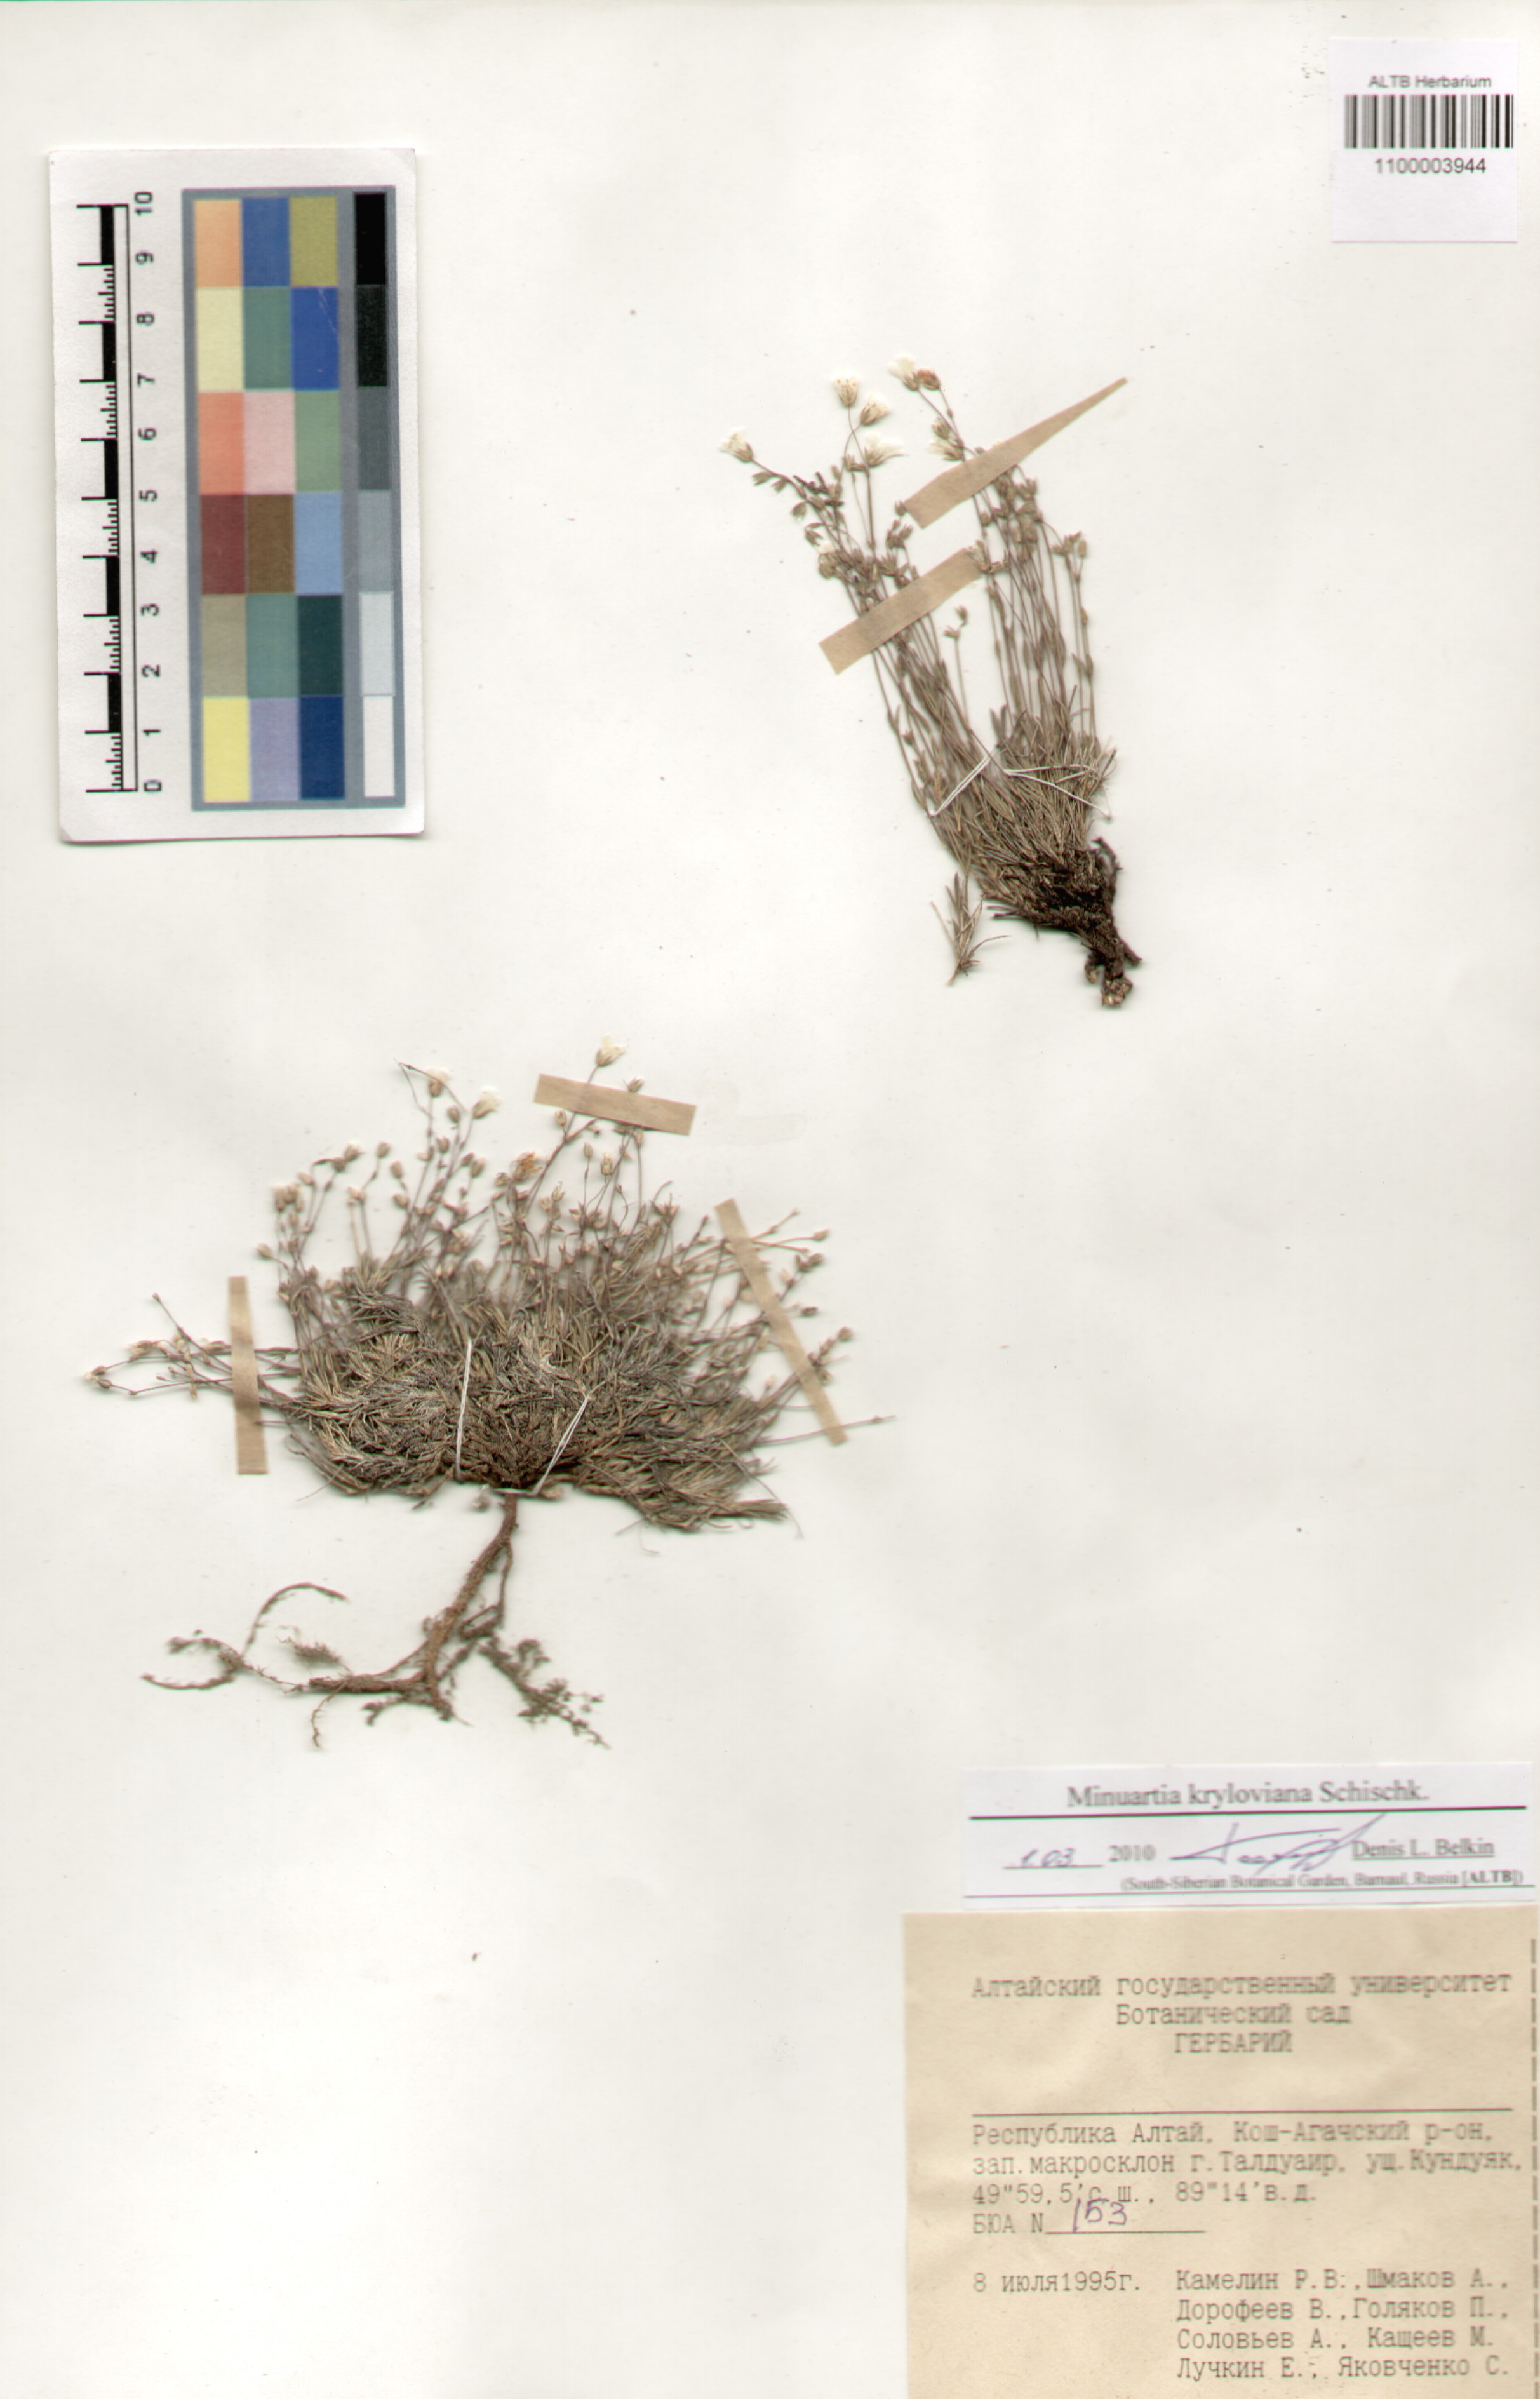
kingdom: Plantae
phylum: Tracheophyta
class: Magnoliopsida
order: Caryophyllales
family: Caryophyllaceae
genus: Sabulina
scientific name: Sabulina kryloviana
